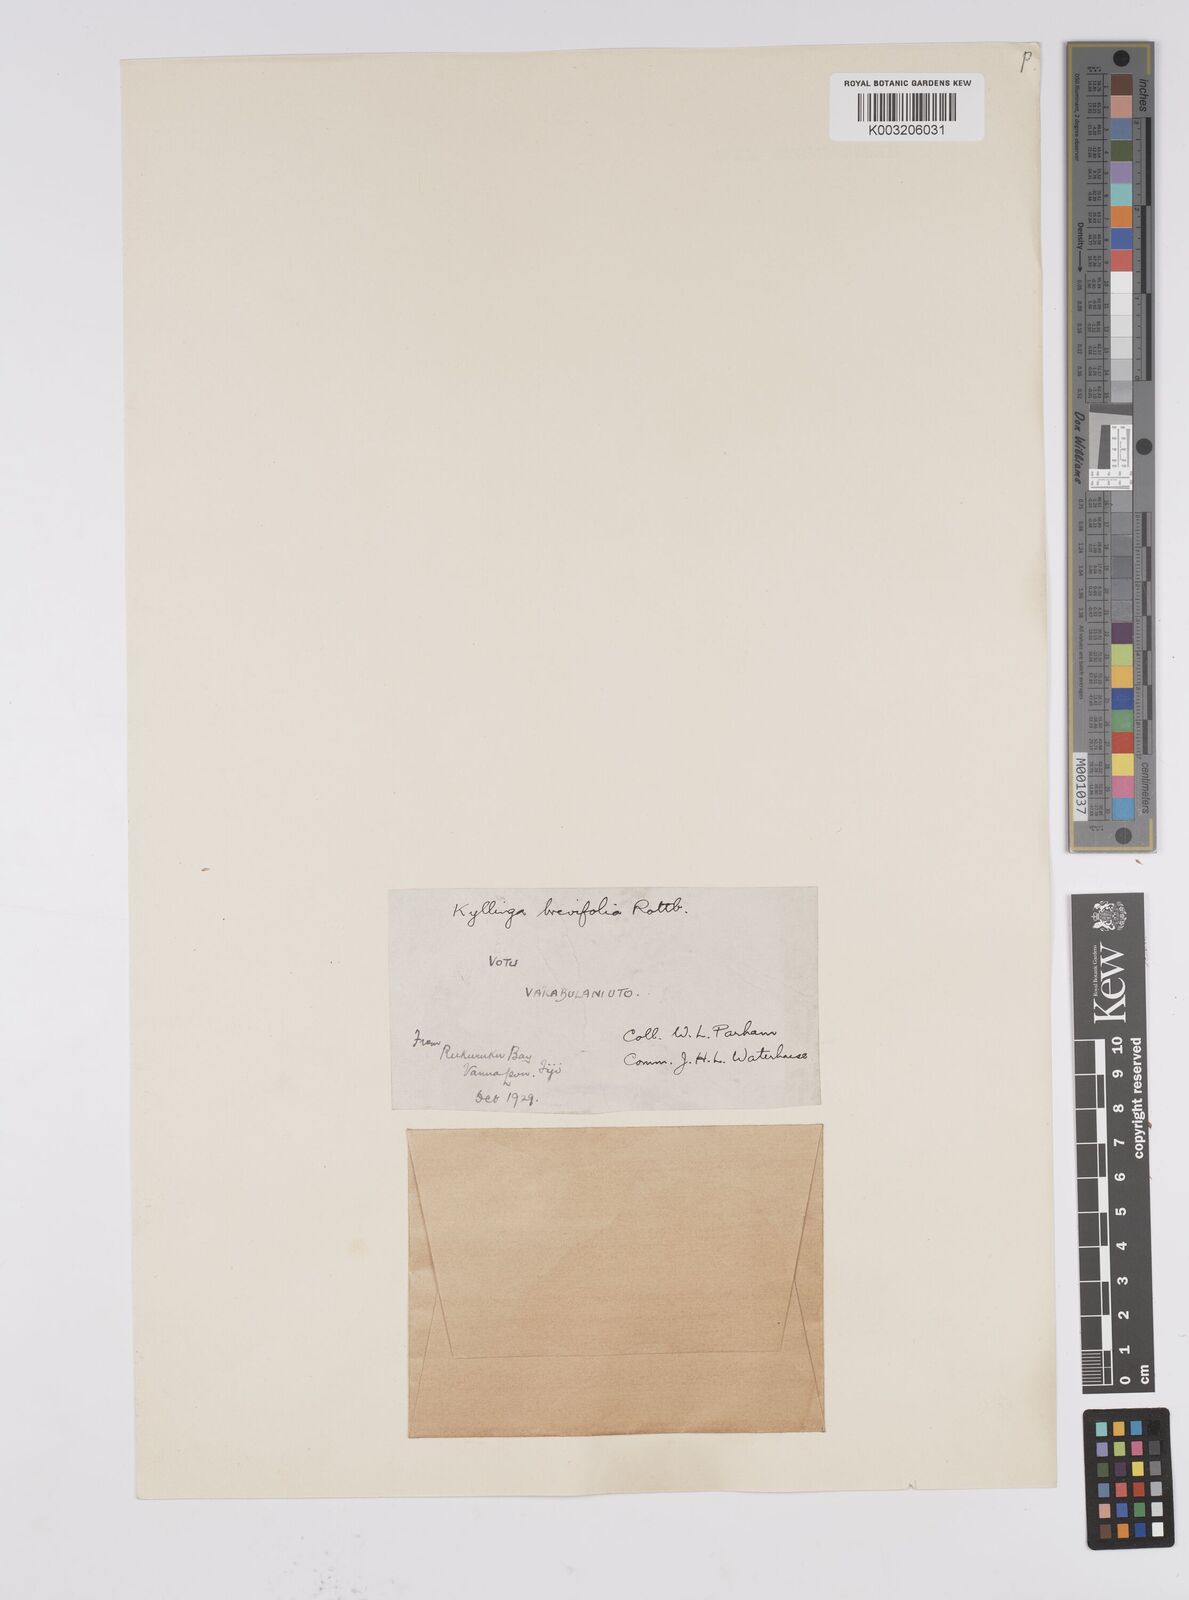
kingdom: Plantae
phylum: Tracheophyta
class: Liliopsida
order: Poales
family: Cyperaceae
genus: Cyperus
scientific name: Cyperus brevifolius
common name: Globe kyllinga
